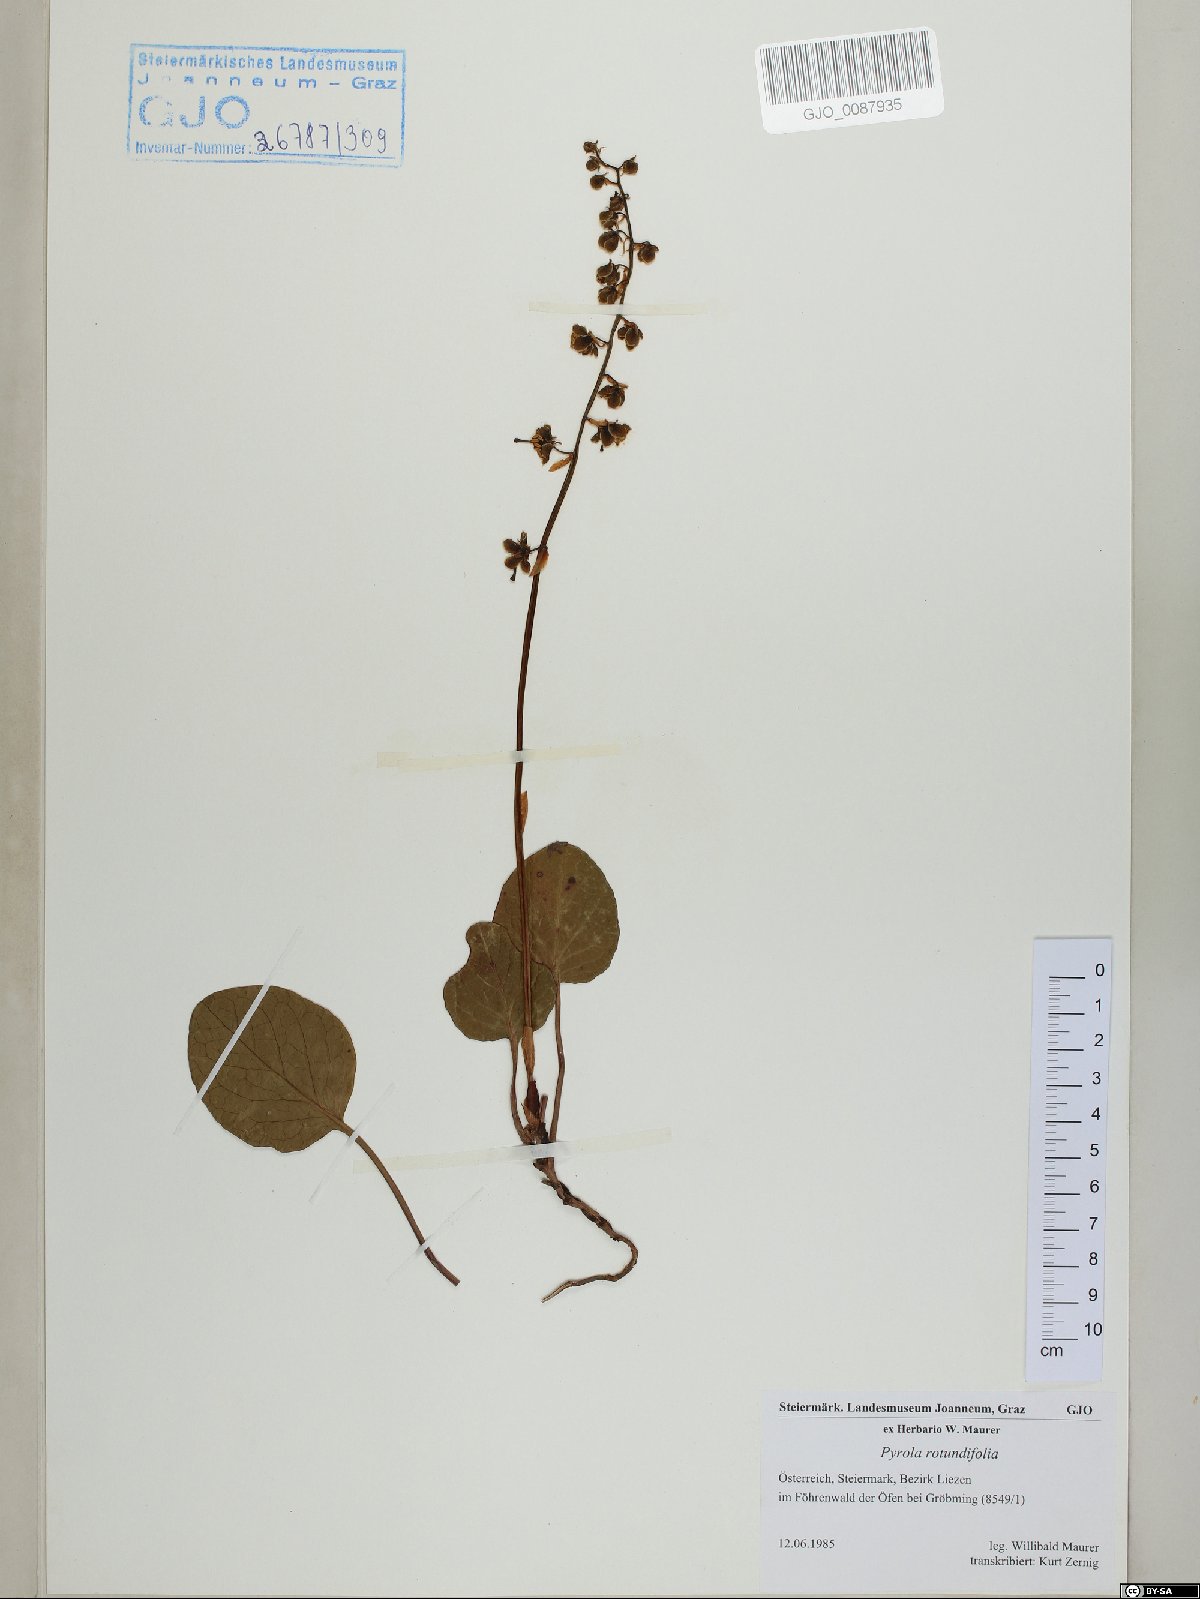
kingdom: Plantae
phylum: Tracheophyta
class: Magnoliopsida
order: Ericales
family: Ericaceae
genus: Pyrola
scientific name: Pyrola rotundifolia
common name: Round-leaved wintergreen
